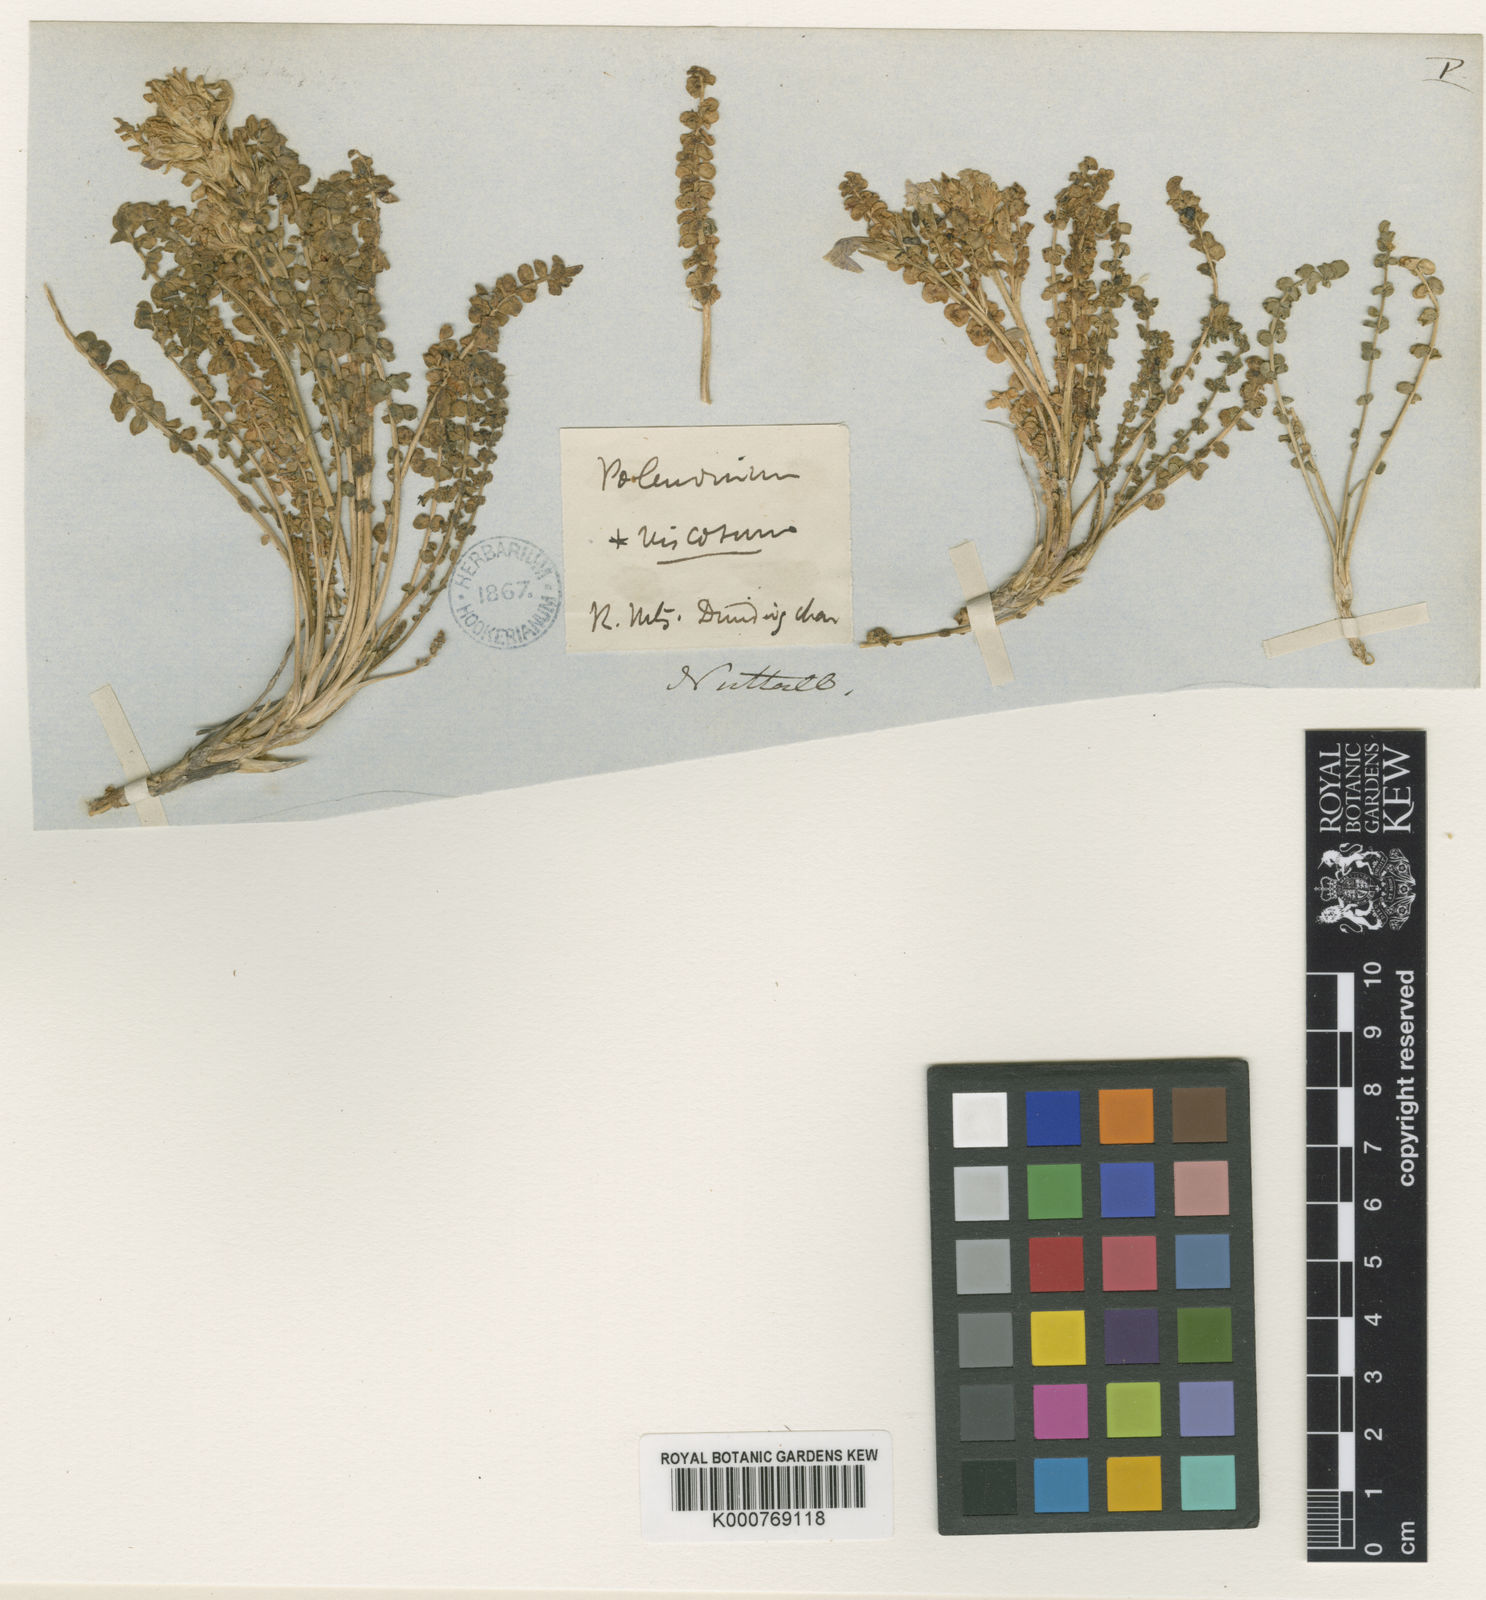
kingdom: Plantae
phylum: Tracheophyta
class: Magnoliopsida
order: Ericales
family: Polemoniaceae
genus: Polemonium
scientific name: Polemonium viscosum
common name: Skunk jacob's-ladder
